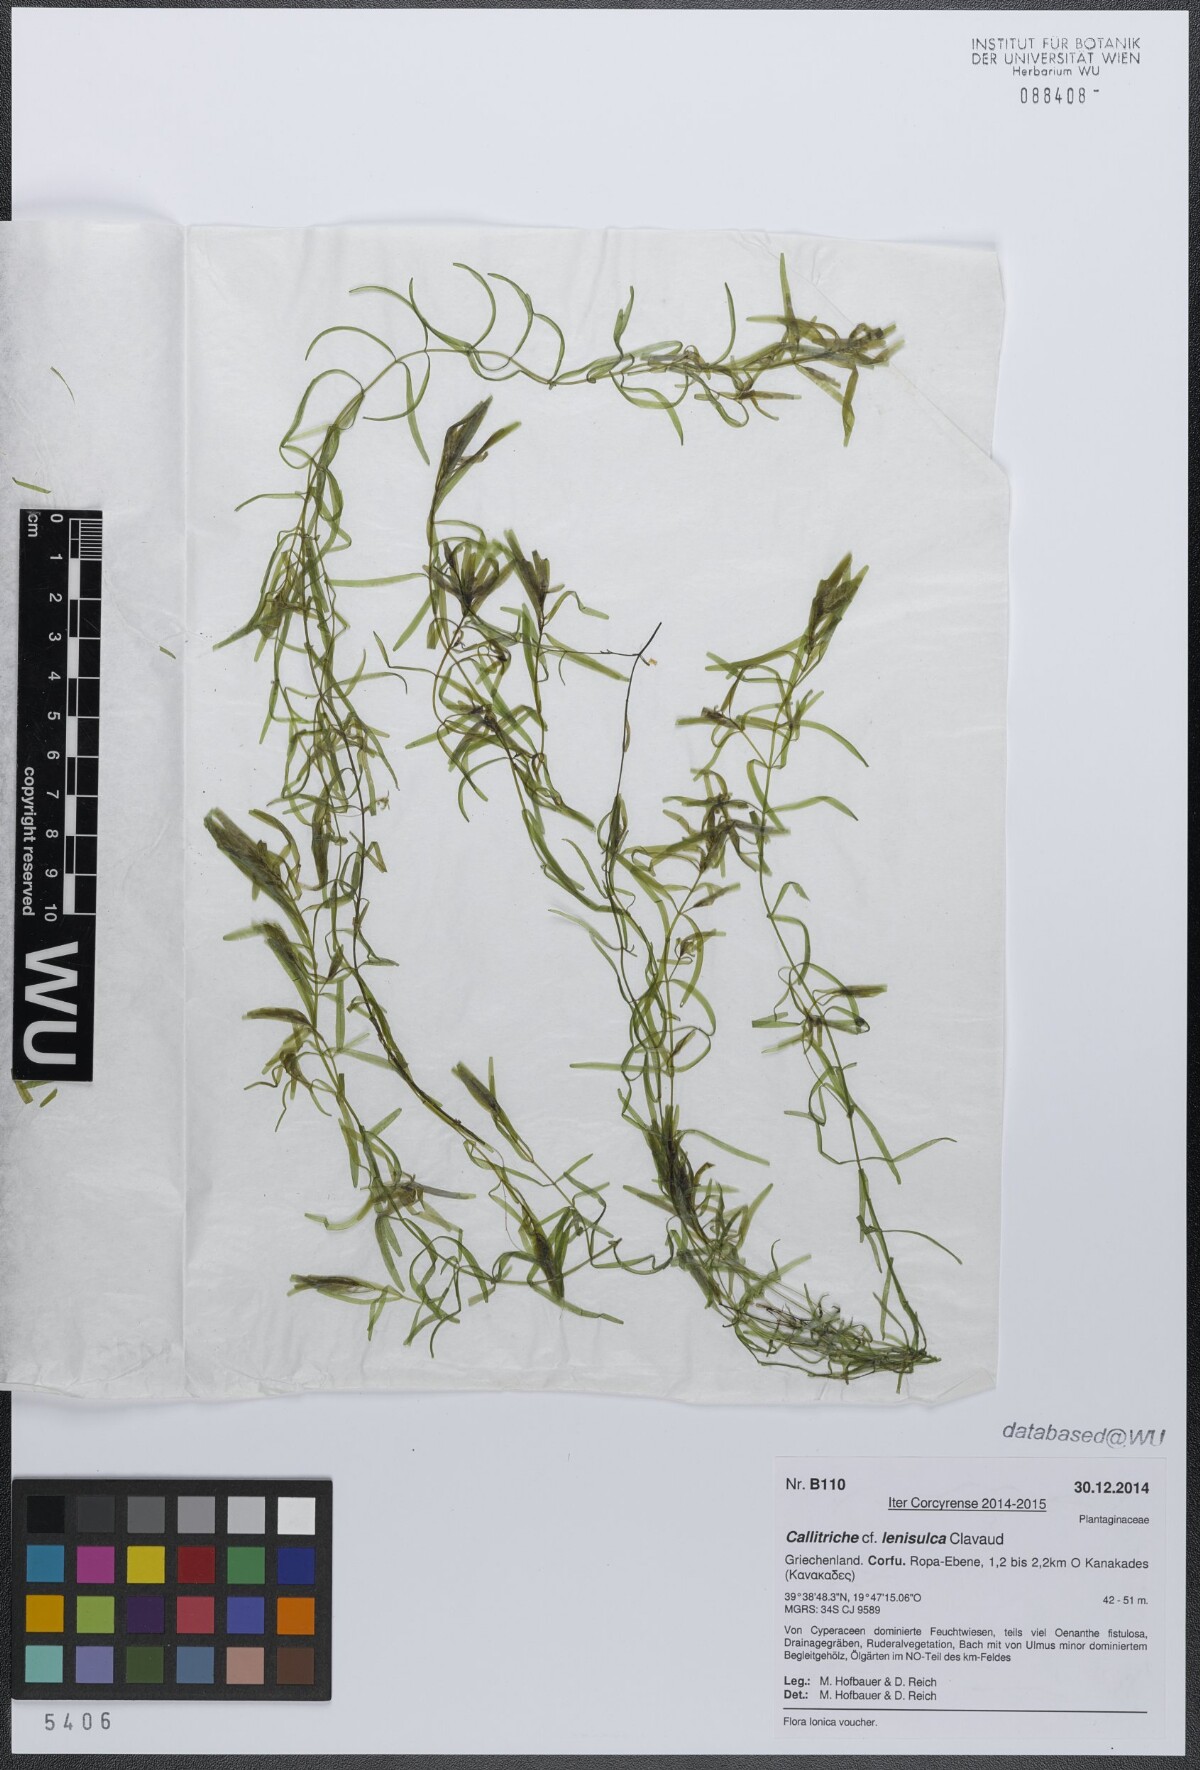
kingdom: Plantae
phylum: Tracheophyta
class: Magnoliopsida
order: Lamiales
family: Plantaginaceae
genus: Callitriche
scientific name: Callitriche lenisulca
